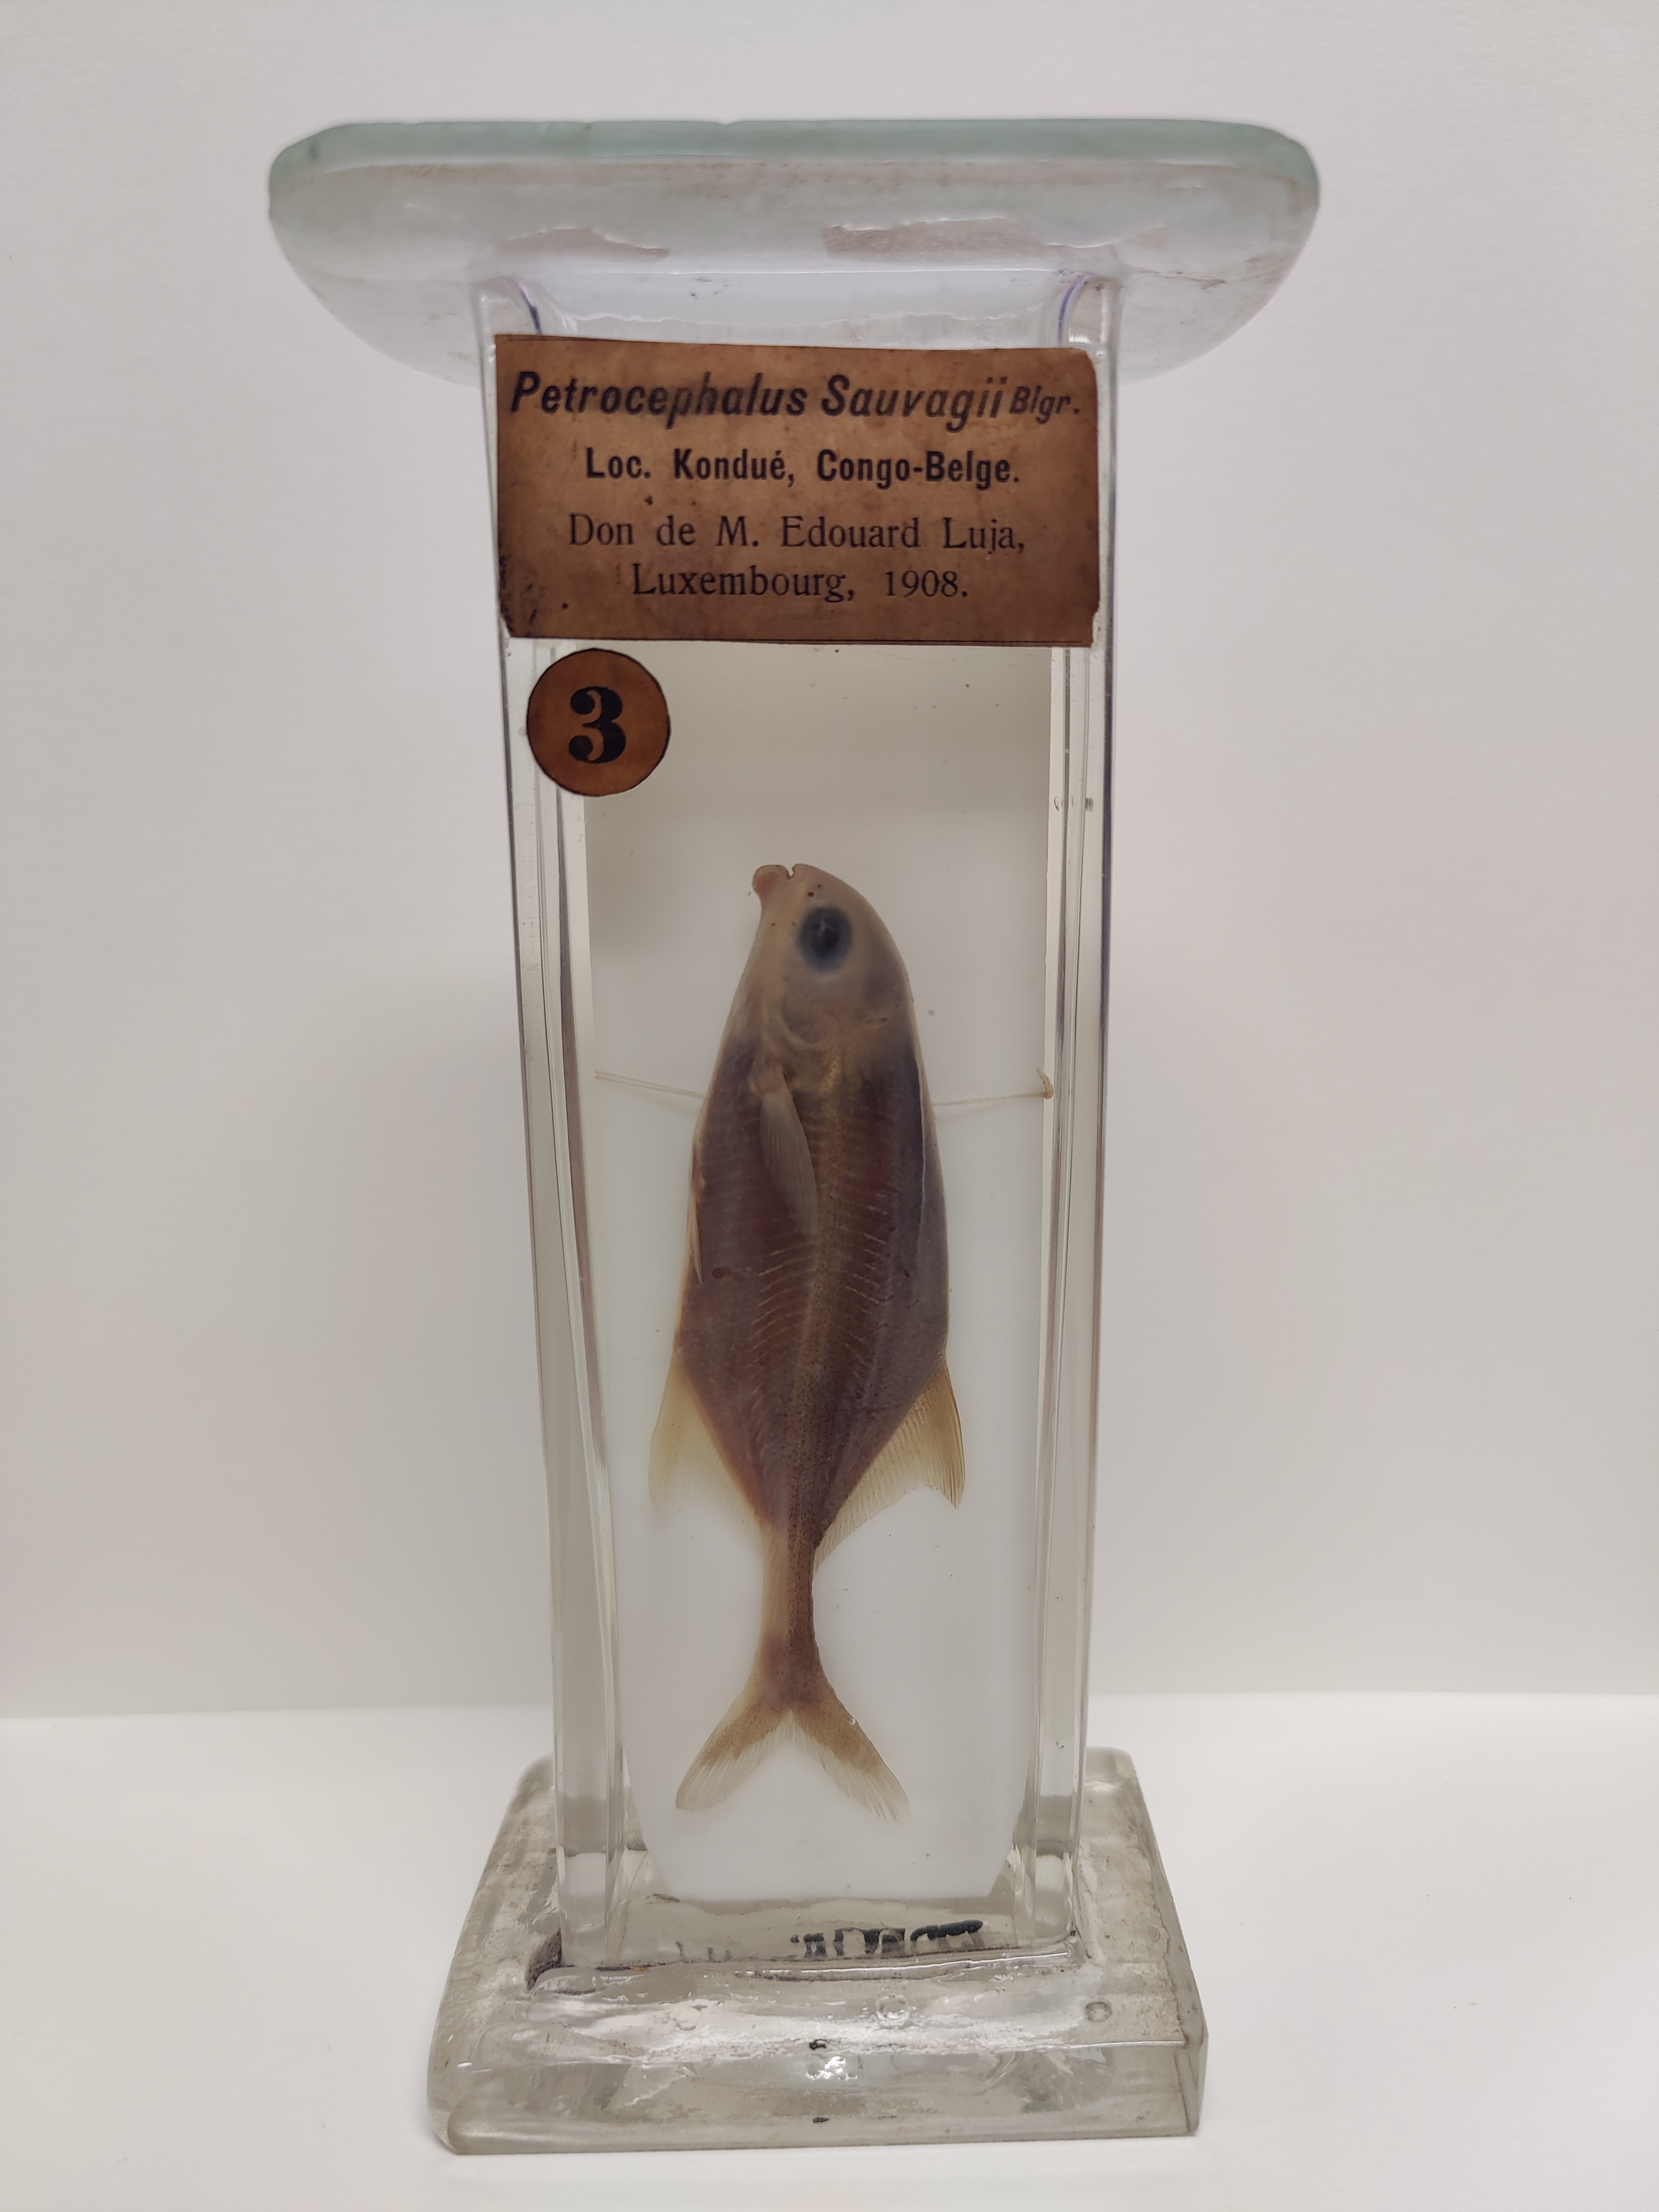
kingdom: Animalia
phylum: Chordata
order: Osteoglossiformes
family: Mormyridae
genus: Petrocephalus
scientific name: Petrocephalus sauvagii
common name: Sauvage's mormyrid
